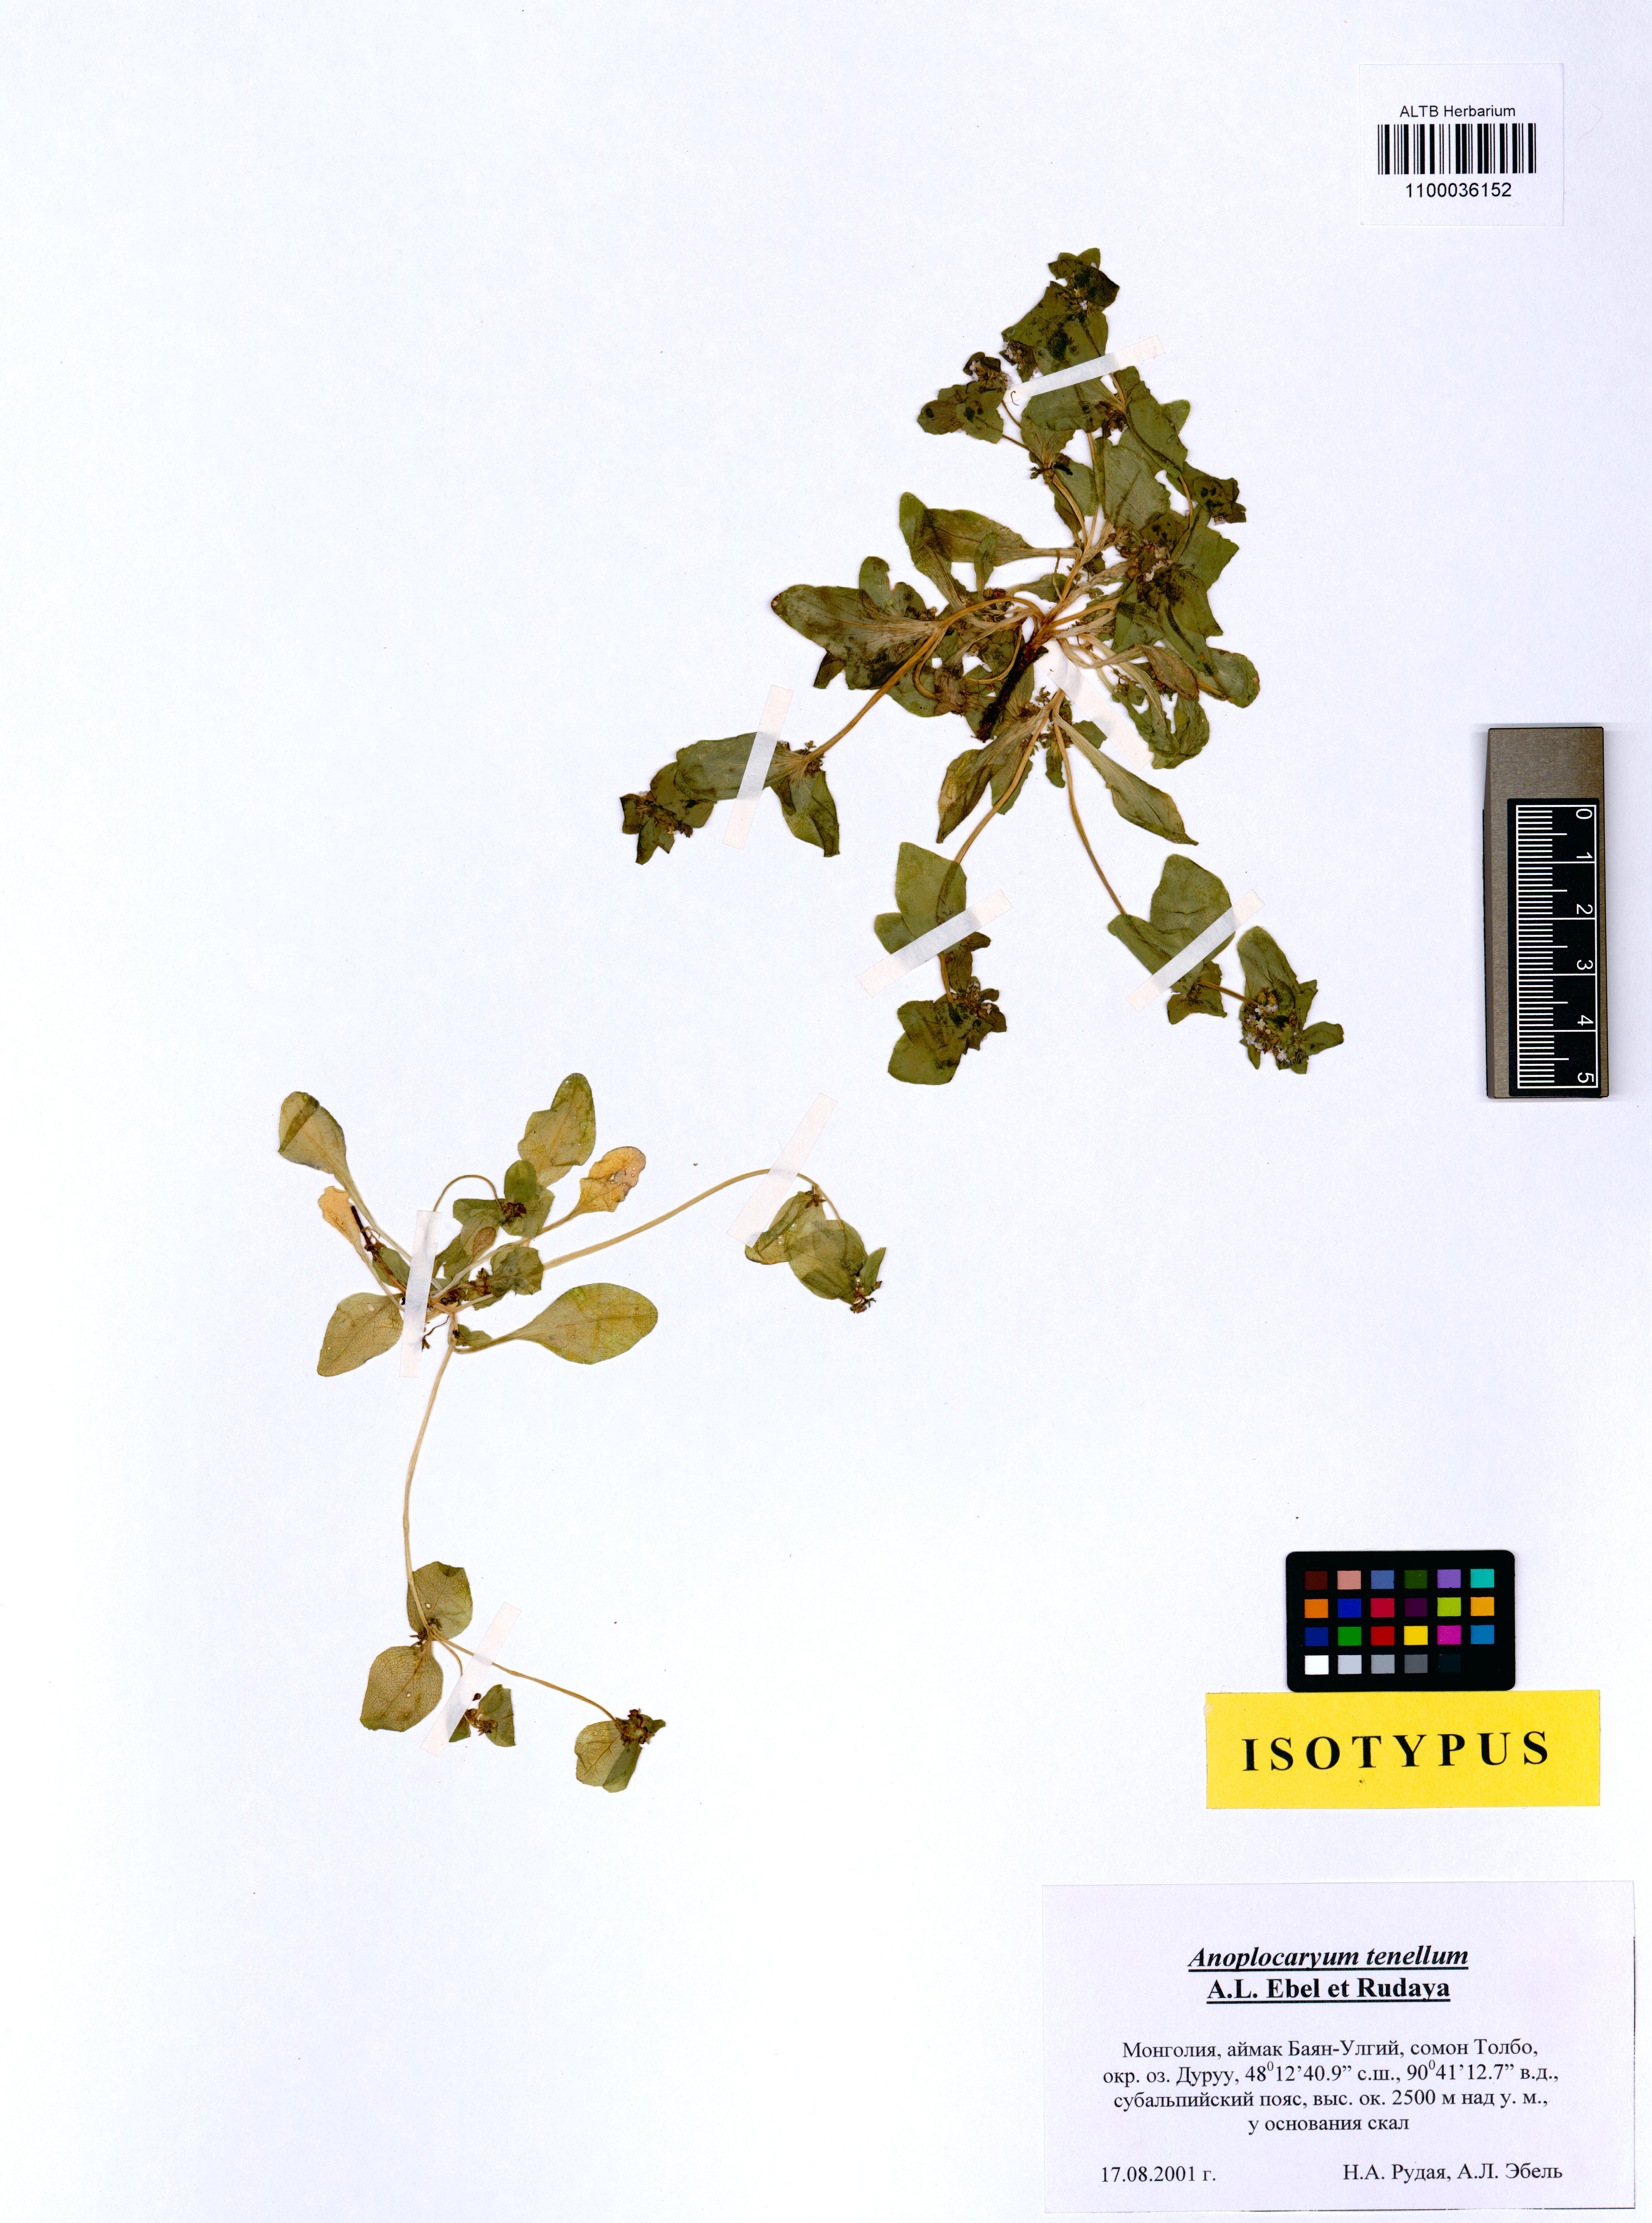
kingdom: Plantae
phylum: Tracheophyta
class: Magnoliopsida
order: Boraginales
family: Boraginaceae
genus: Anoplocaryum
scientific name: Anoplocaryum tenellum
